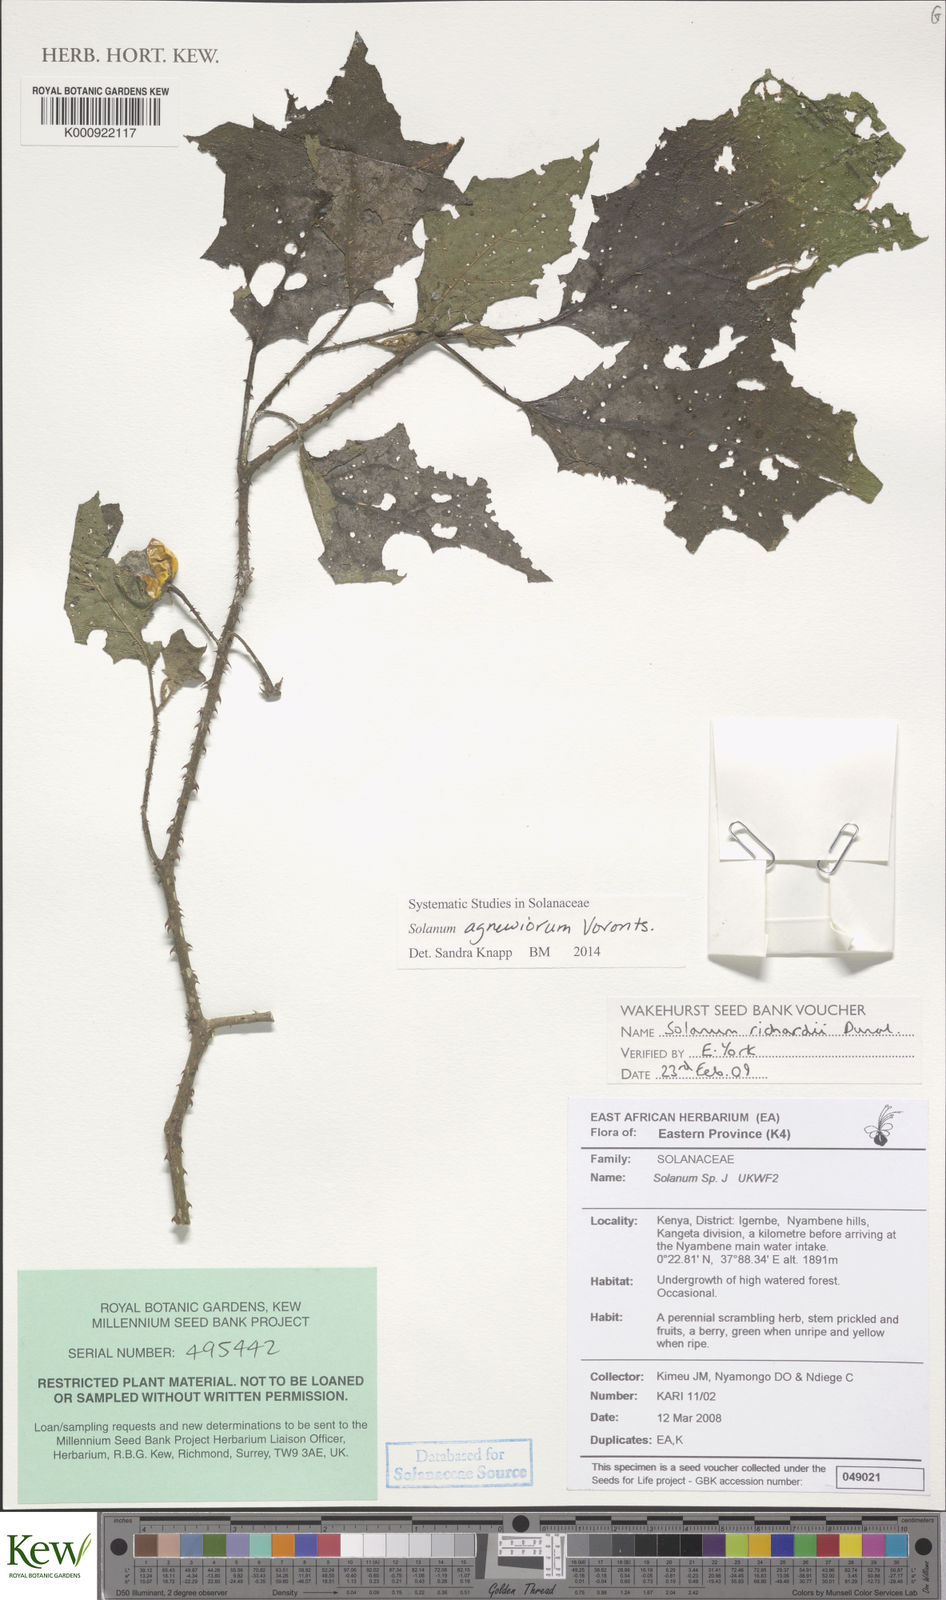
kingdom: Plantae
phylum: Tracheophyta
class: Magnoliopsida
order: Solanales
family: Solanaceae
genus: Solanum
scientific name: Solanum agnewiorum
